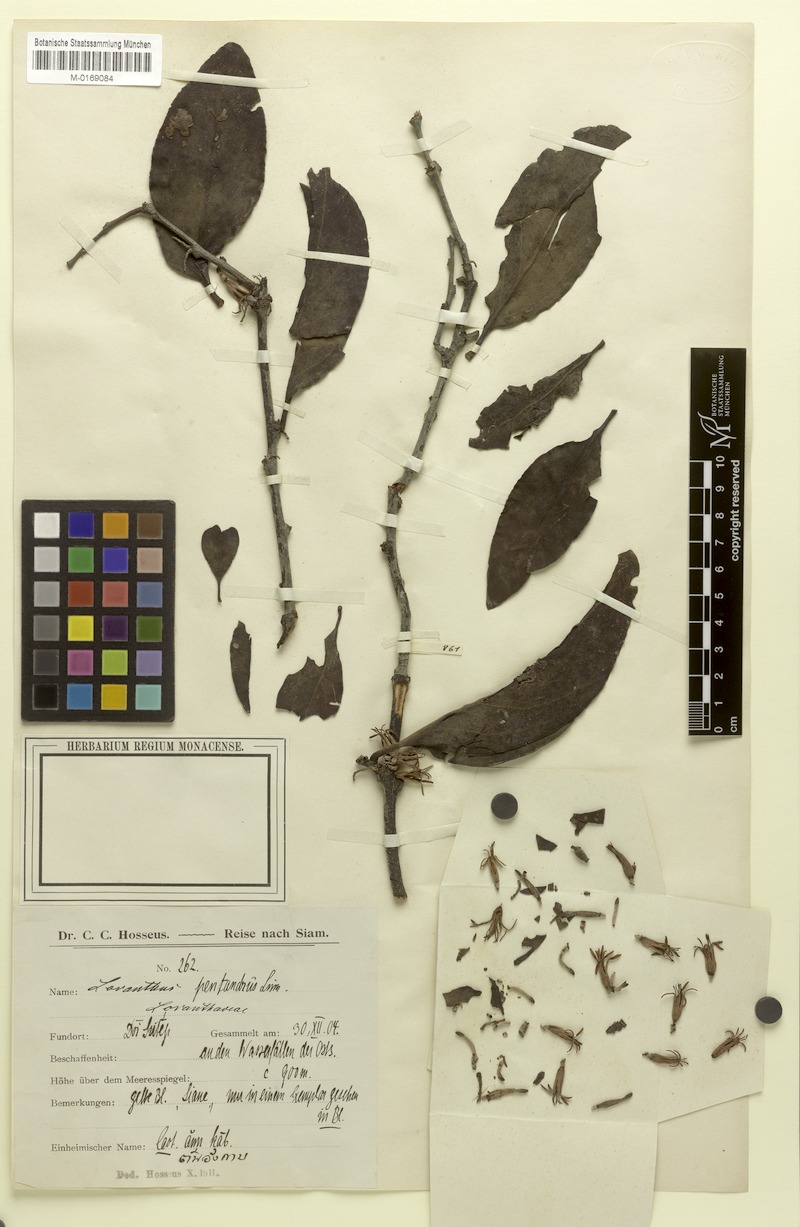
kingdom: Plantae
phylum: Tracheophyta
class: Magnoliopsida
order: Santalales
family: Loranthaceae
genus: Dendrophthoe
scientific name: Dendrophthoe pentandra
